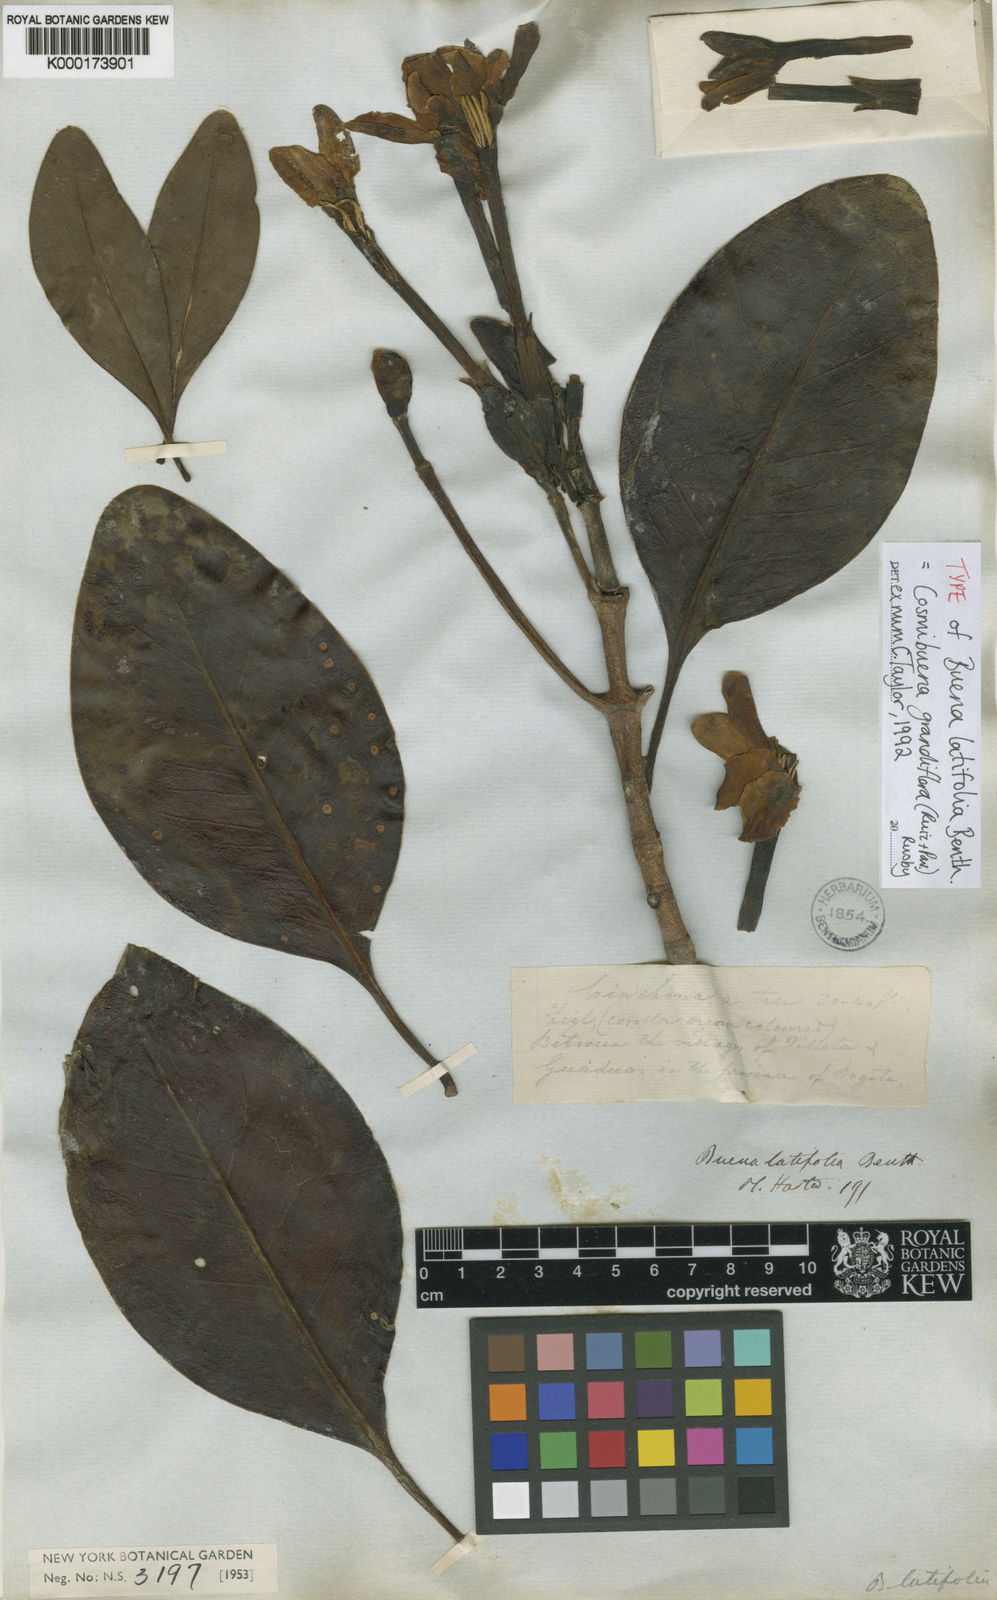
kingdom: Plantae
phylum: Tracheophyta
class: Magnoliopsida
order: Gentianales
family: Rubiaceae
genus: Cosmibuena
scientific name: Cosmibuena grandiflora
